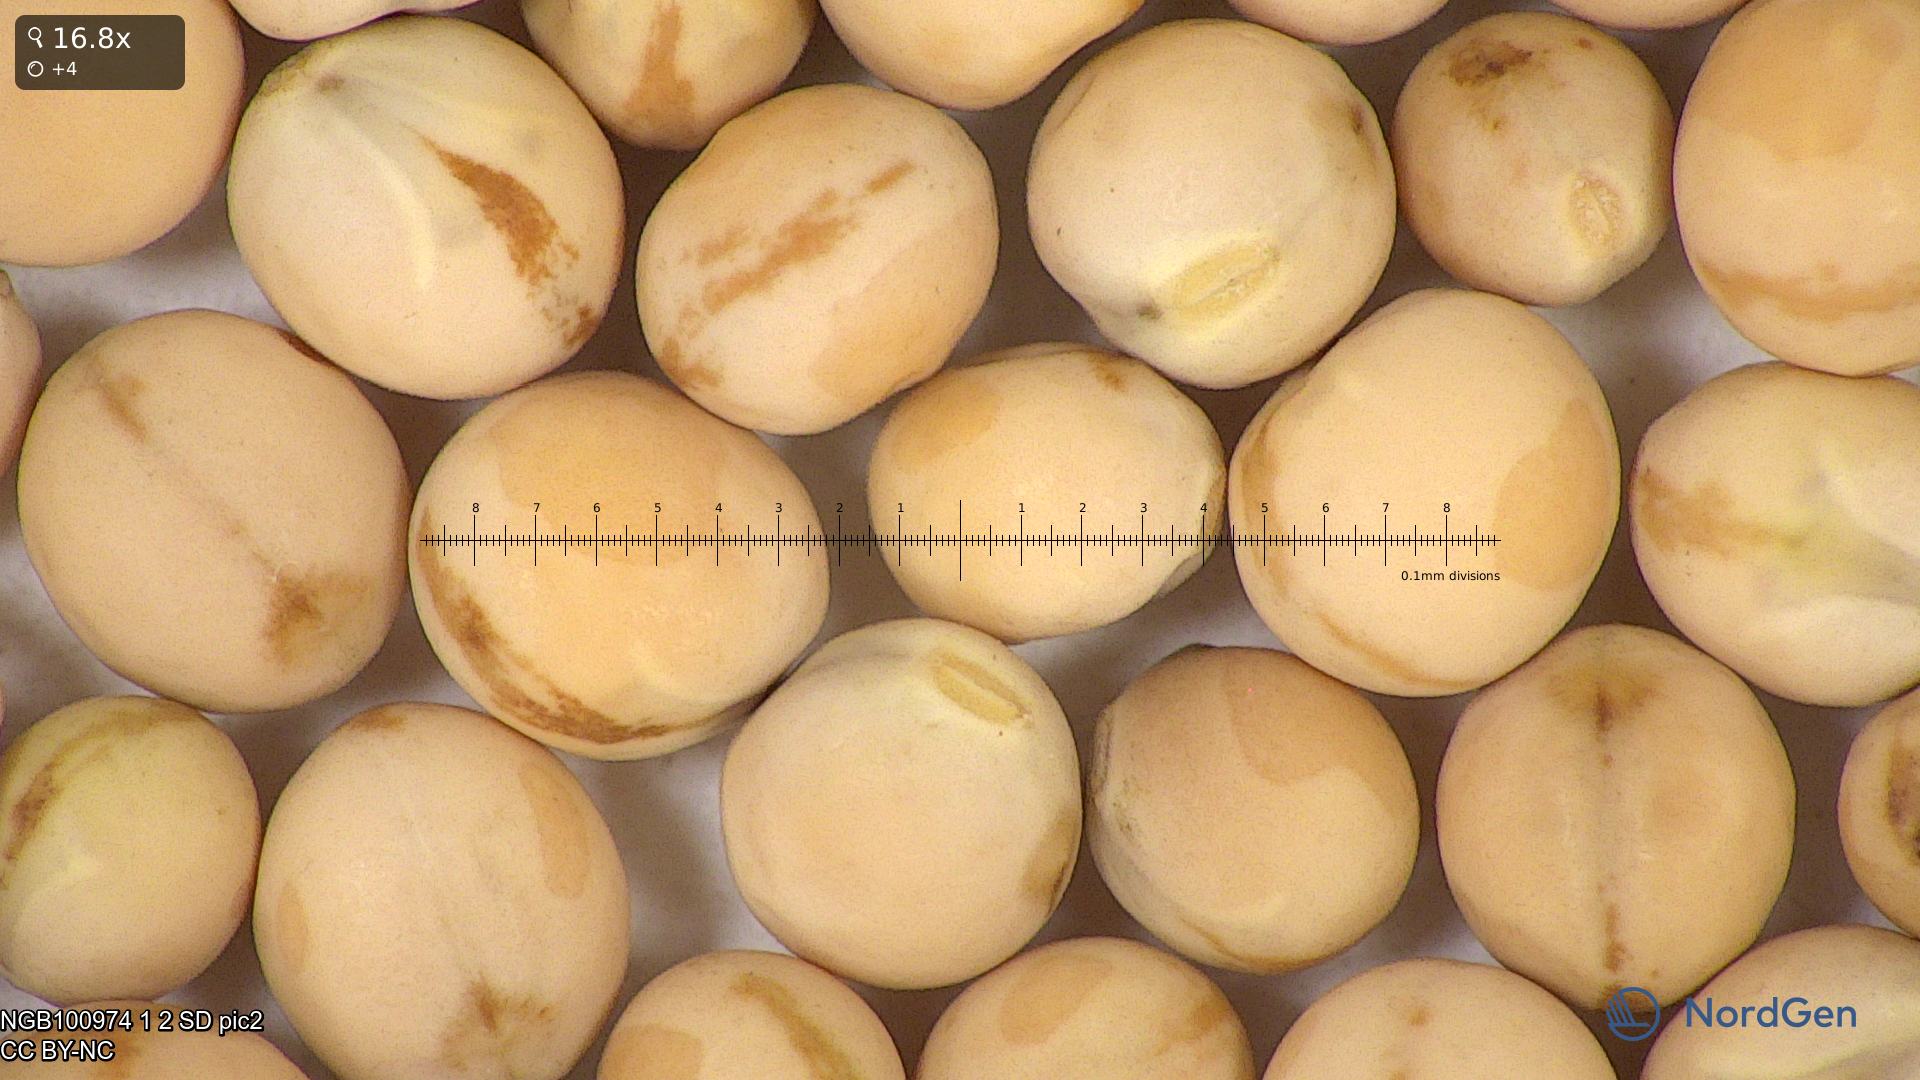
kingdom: Plantae
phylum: Tracheophyta
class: Magnoliopsida
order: Fabales
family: Fabaceae
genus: Lathyrus
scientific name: Lathyrus oleraceus
